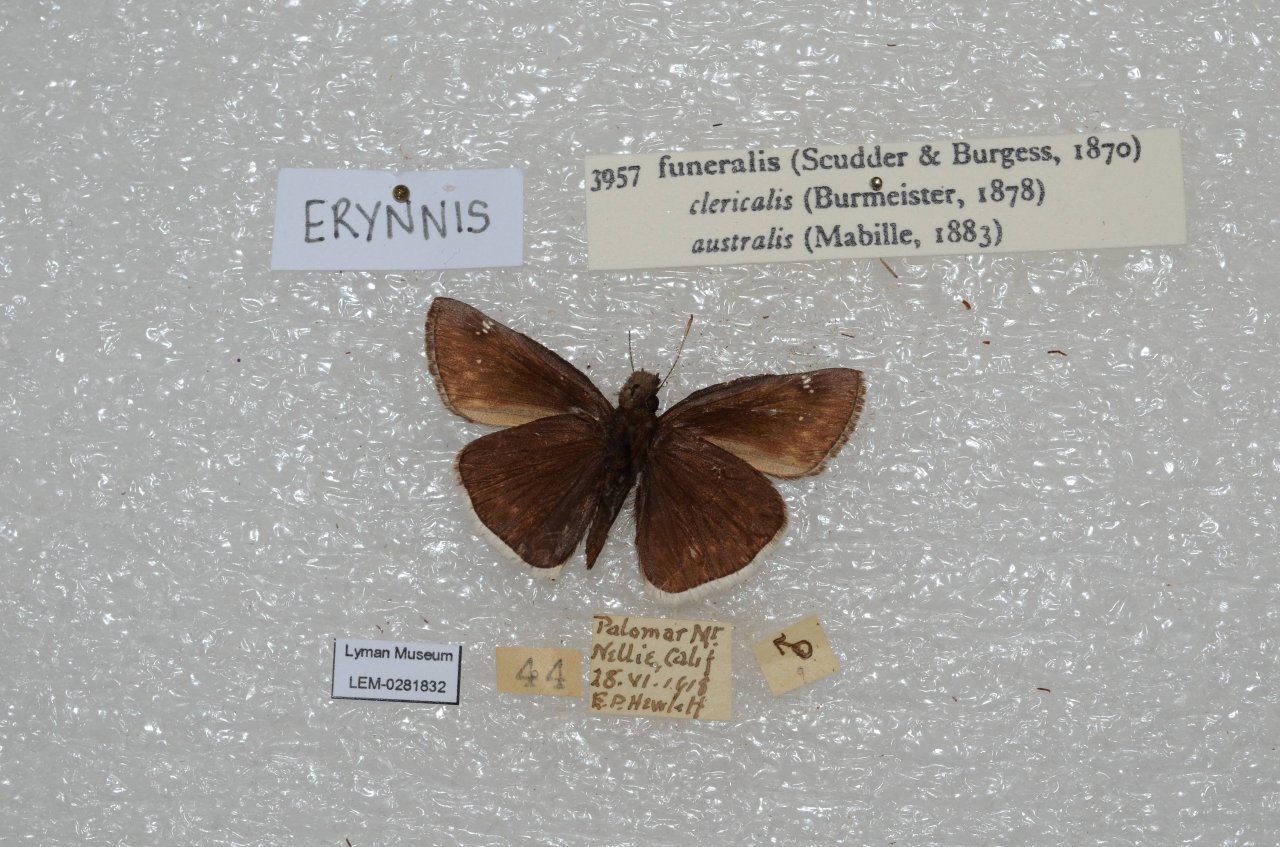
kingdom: Animalia
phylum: Arthropoda
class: Insecta
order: Lepidoptera
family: Hesperiidae
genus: Erynnis
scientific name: Erynnis funeralis
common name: Funereal Duskywing
